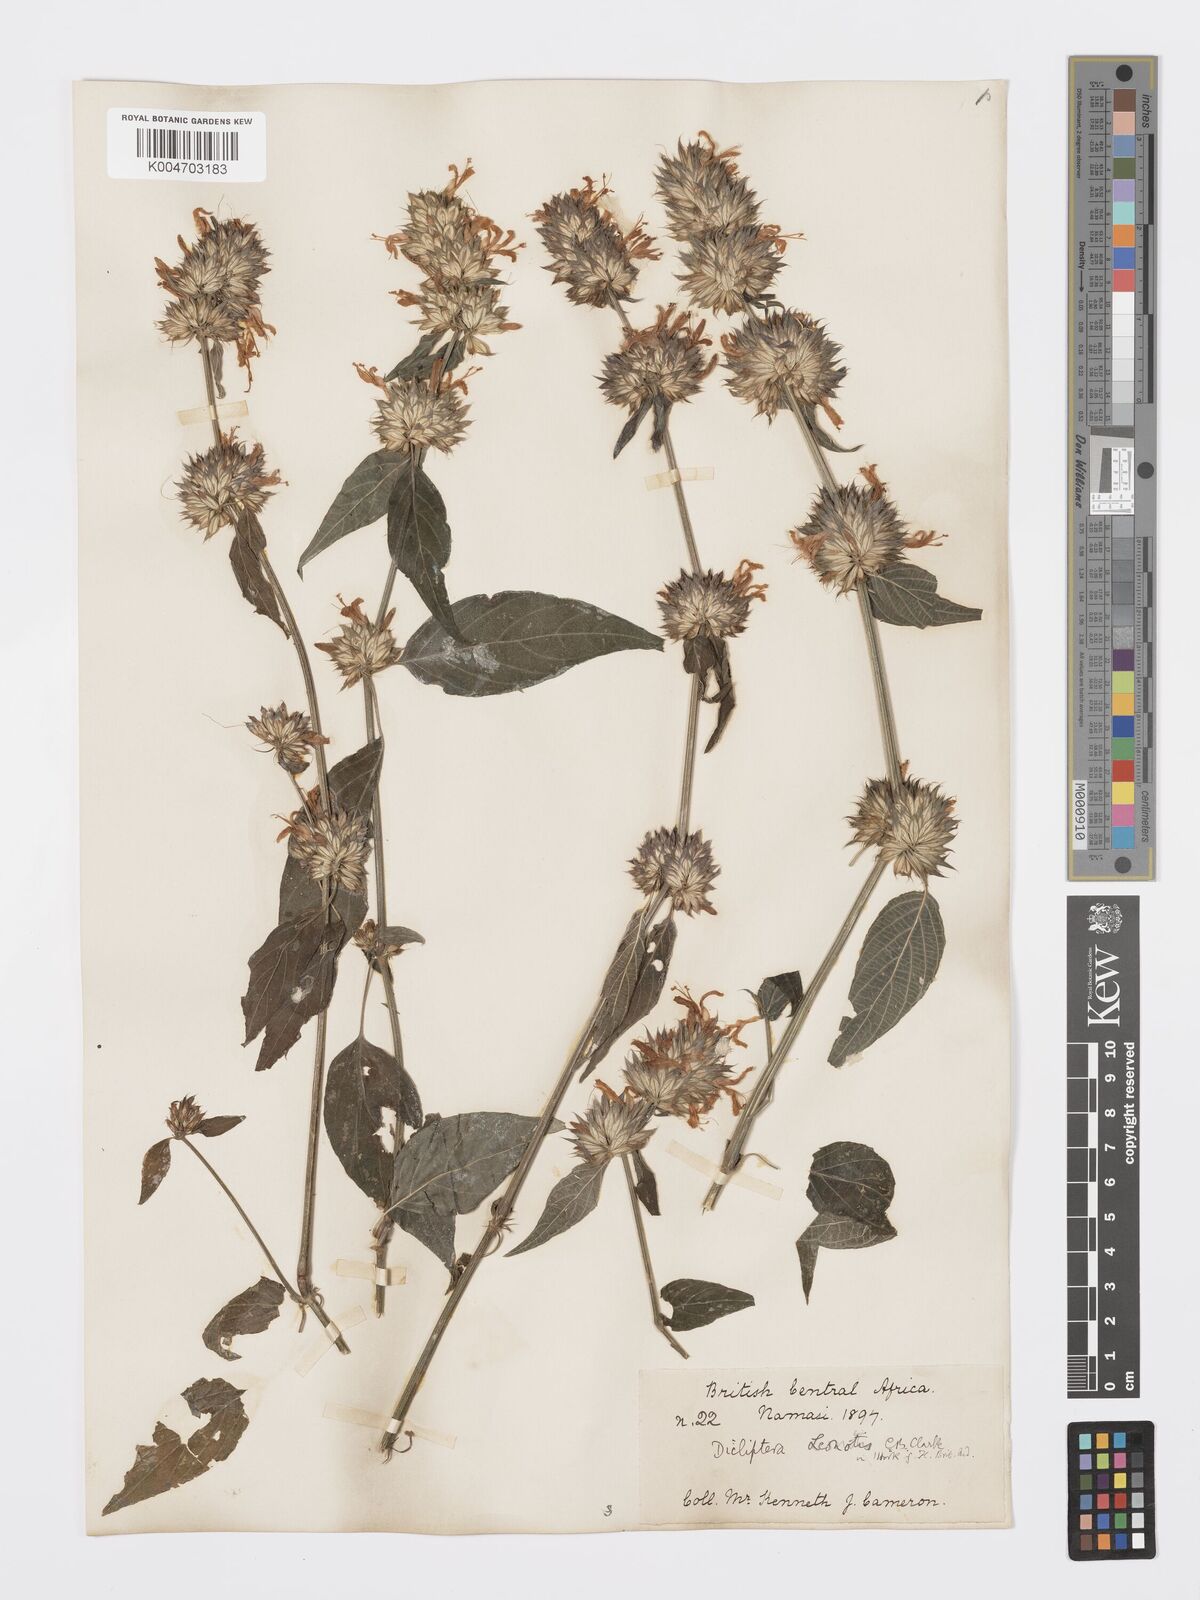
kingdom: Plantae
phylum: Tracheophyta
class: Magnoliopsida
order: Lamiales
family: Acanthaceae
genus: Dicliptera
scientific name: Dicliptera clinopodia
